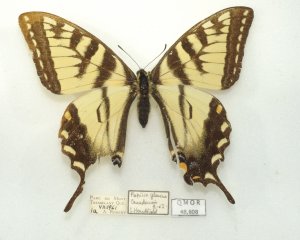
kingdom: Animalia
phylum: Arthropoda
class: Insecta
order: Lepidoptera
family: Papilionidae
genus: Pterourus
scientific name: Pterourus glaucus
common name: Eastern Tiger Swallowtail
